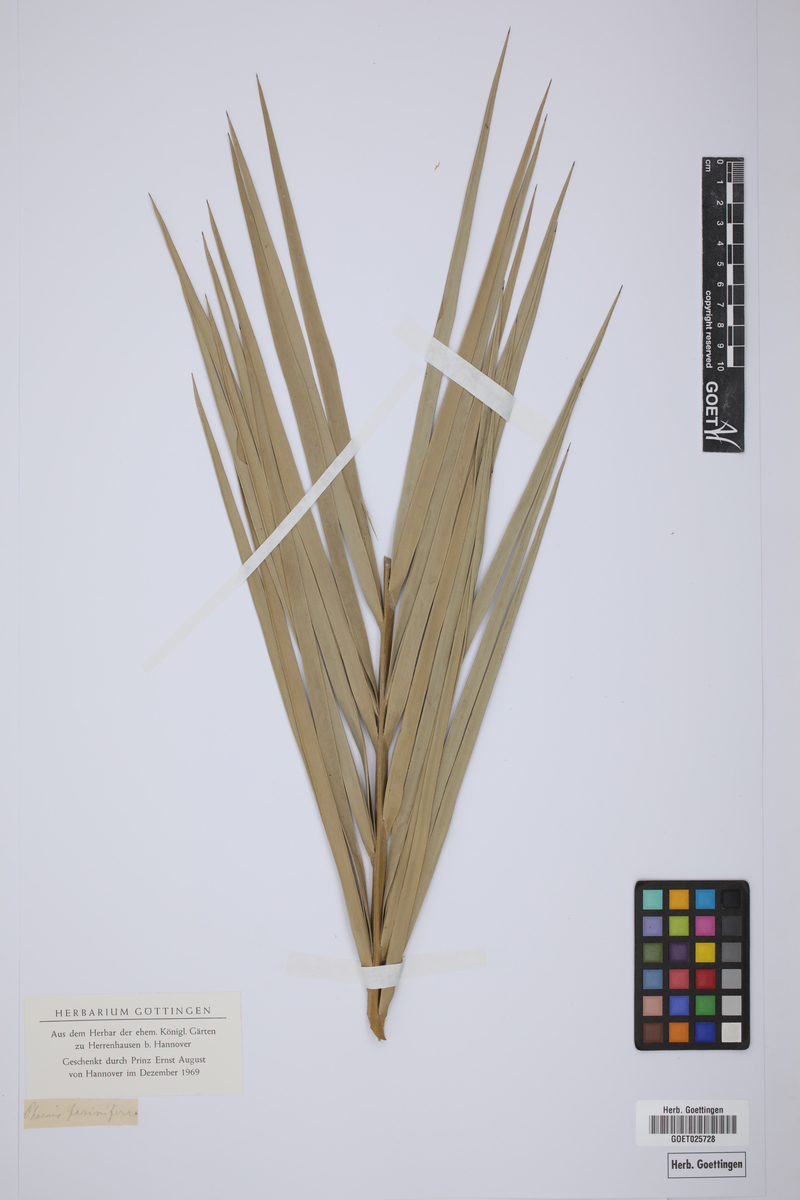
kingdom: Plantae
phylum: Tracheophyta
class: Liliopsida
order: Arecales
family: Arecaceae
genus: Phoenix
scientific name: Phoenix pusilla
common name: Flour palm
